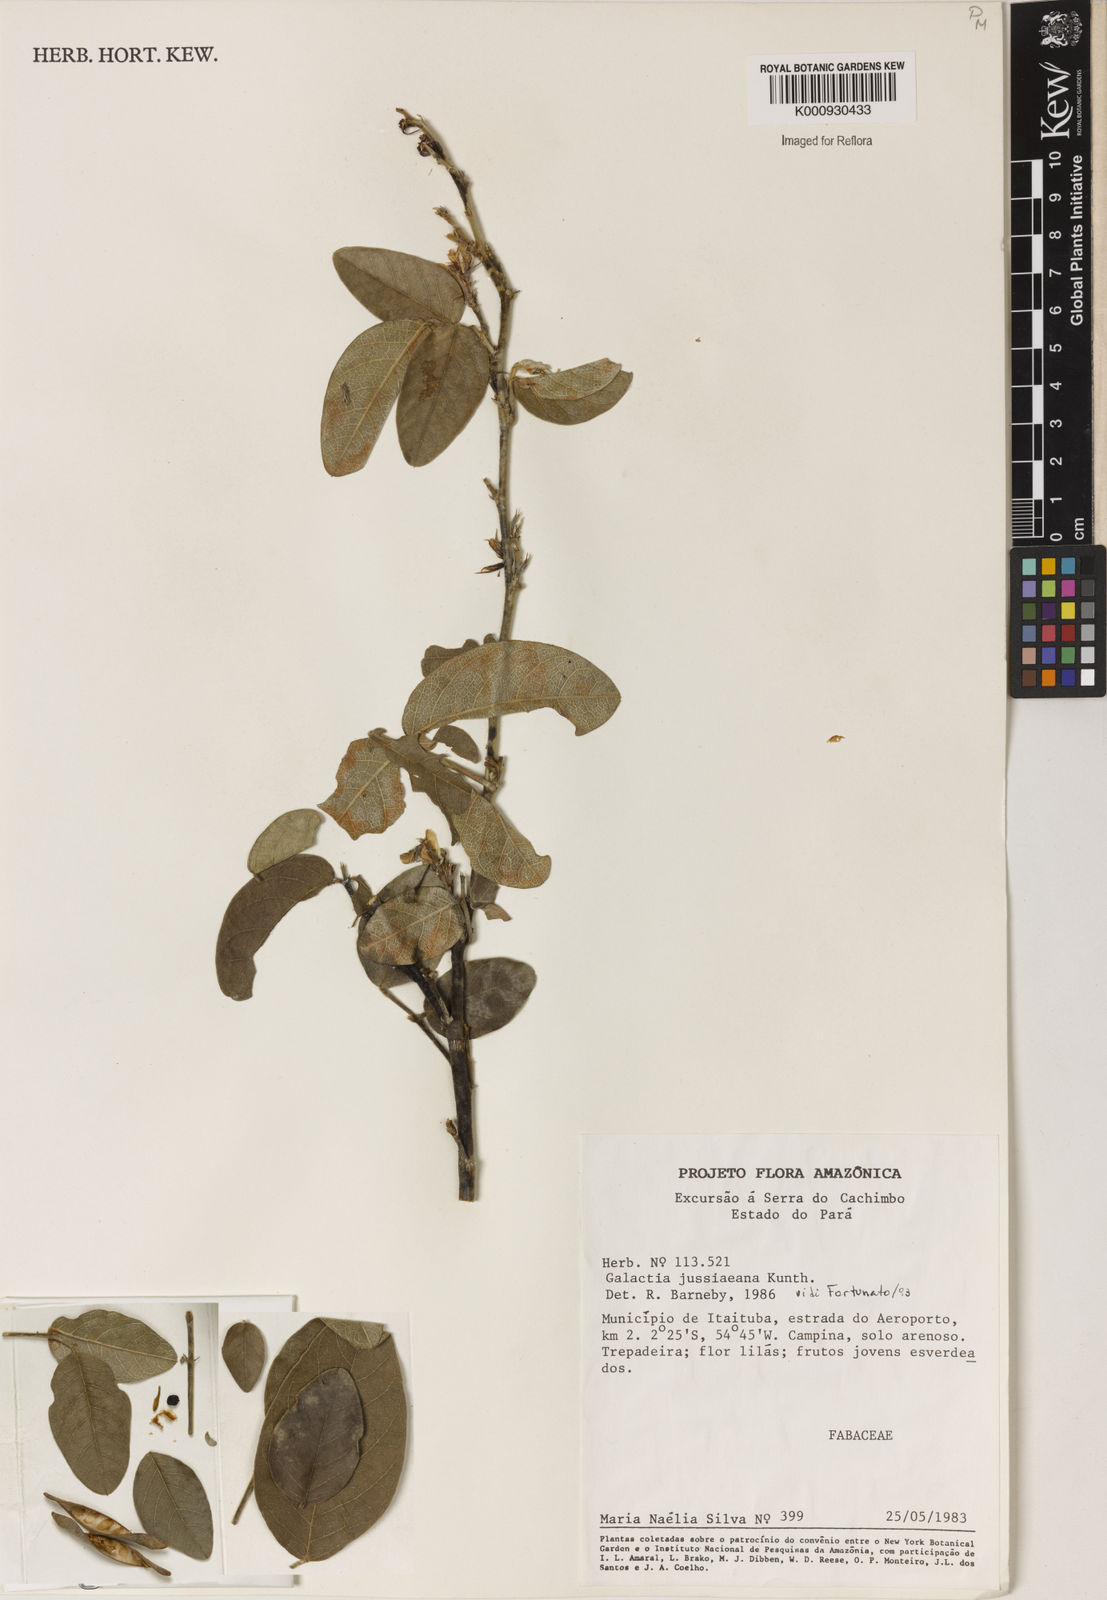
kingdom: Plantae
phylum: Tracheophyta
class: Magnoliopsida
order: Fabales
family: Fabaceae
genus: Galactia
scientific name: Galactia jussiaeana
